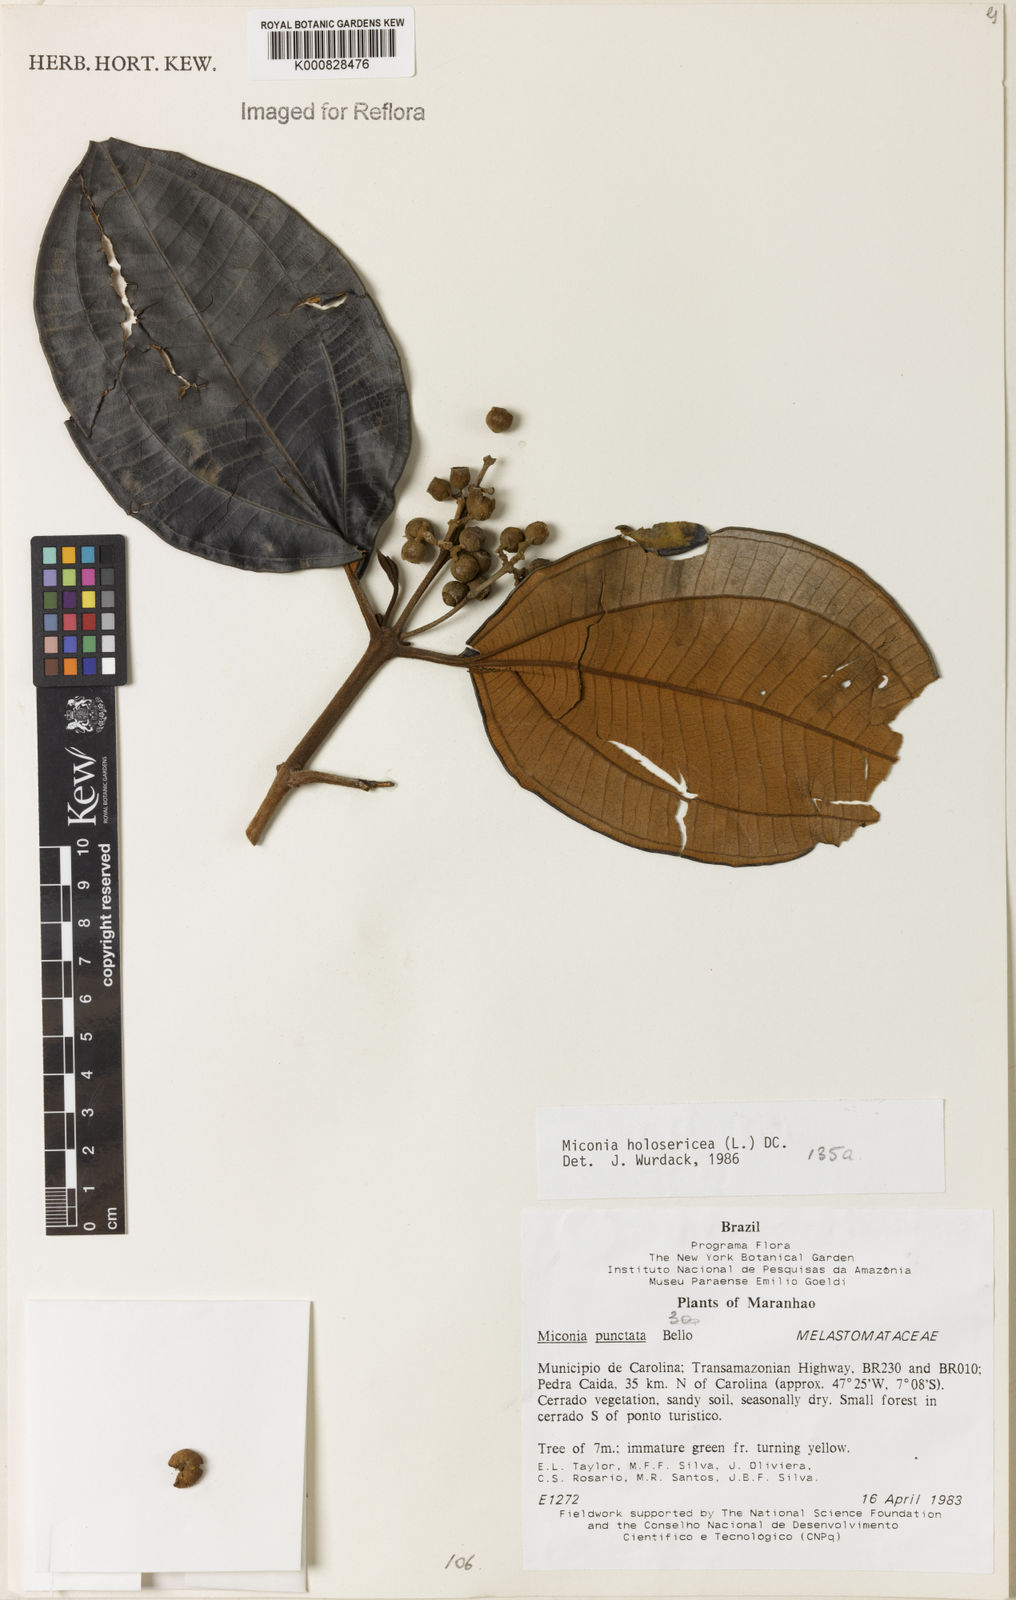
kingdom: Plantae
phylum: Tracheophyta
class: Magnoliopsida
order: Myrtales
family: Melastomataceae
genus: Miconia
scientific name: Miconia holosericea
